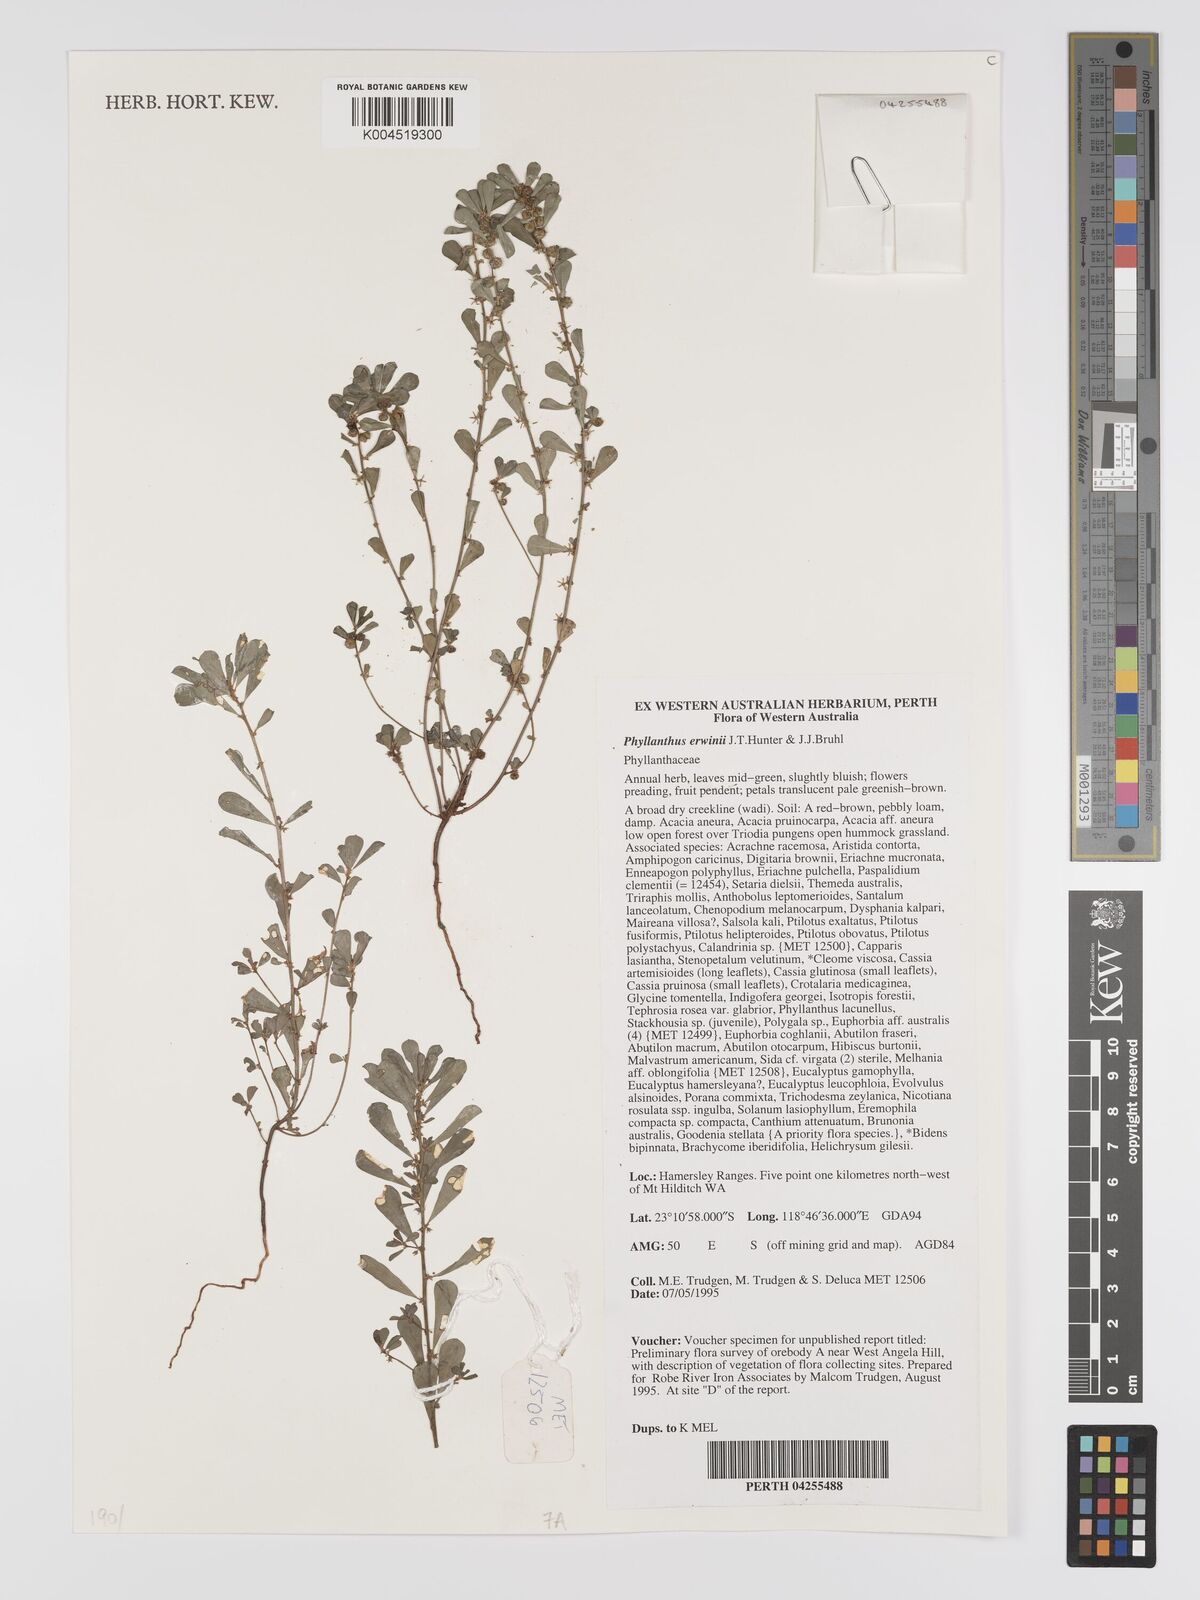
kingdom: Plantae
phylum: Tracheophyta
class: Magnoliopsida
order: Malpighiales
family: Phyllanthaceae
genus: Phyllanthus
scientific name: Phyllanthus erwinii
